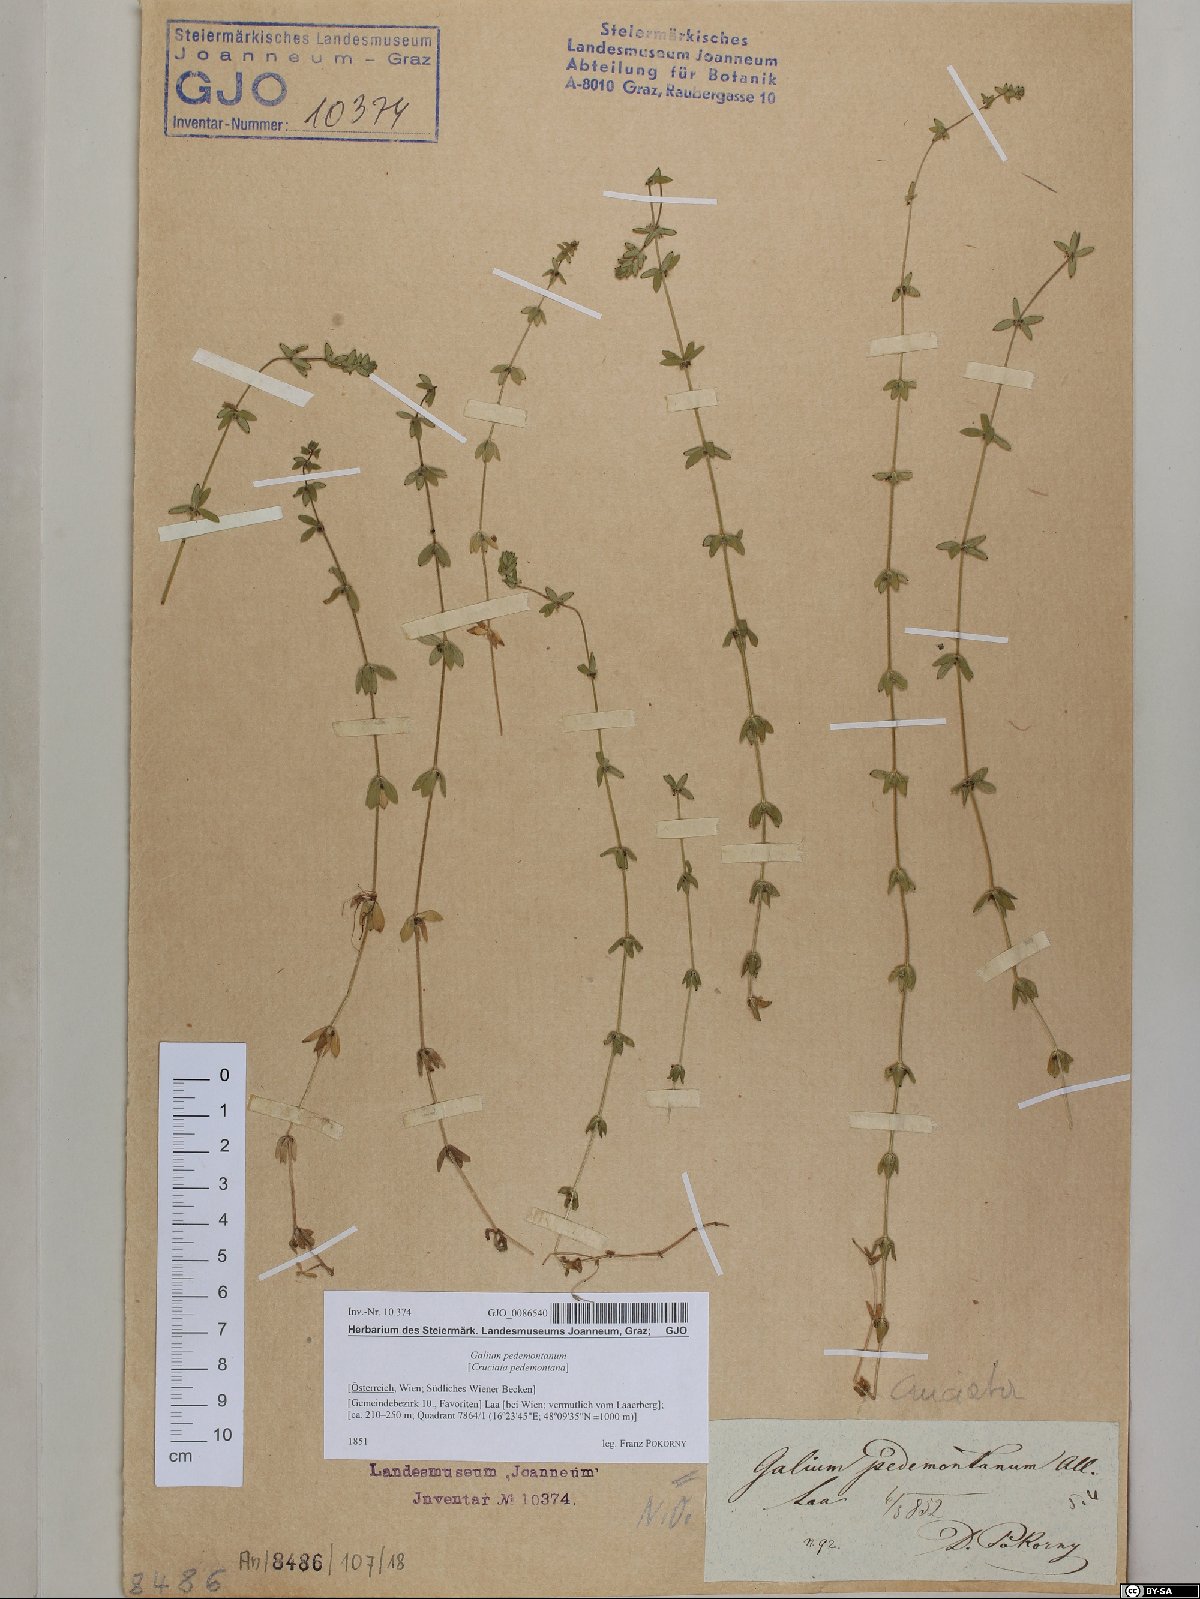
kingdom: Plantae
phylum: Tracheophyta
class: Magnoliopsida
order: Gentianales
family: Rubiaceae
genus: Cruciata
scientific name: Cruciata pedemontana
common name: Piedmont bedstraw
